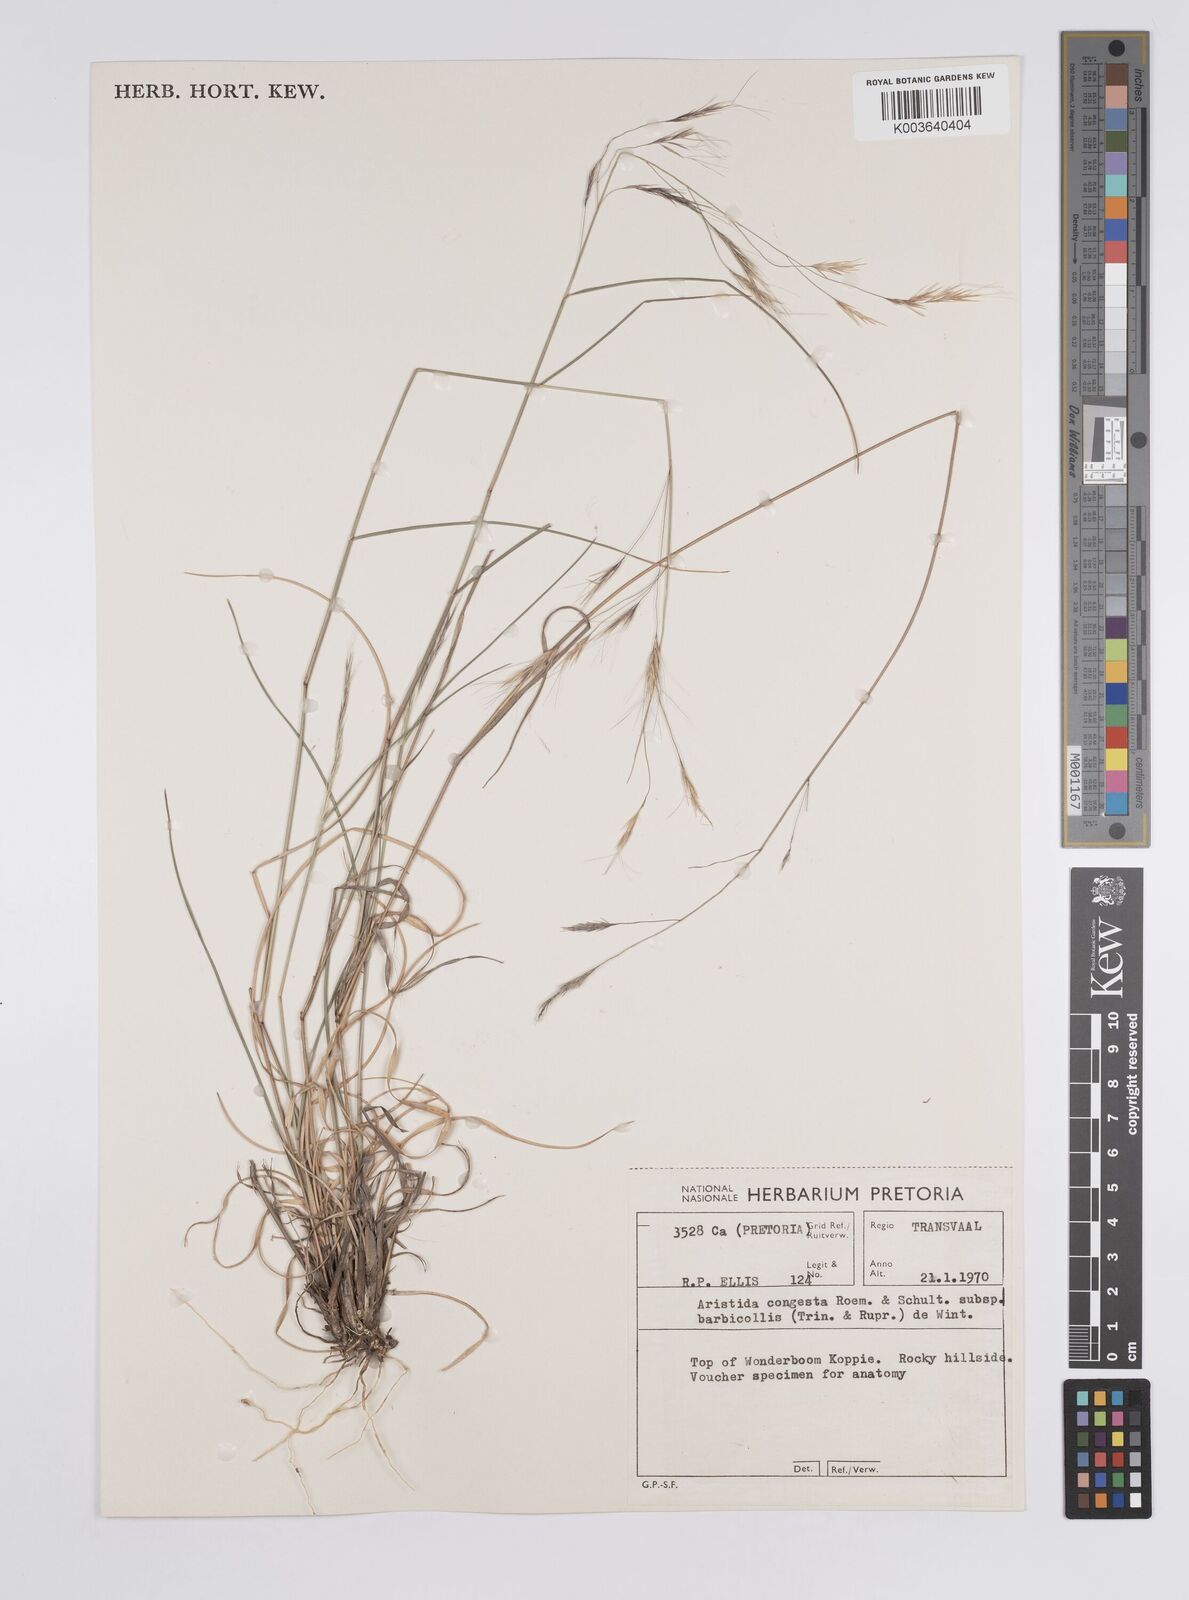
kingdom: Plantae
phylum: Tracheophyta
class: Liliopsida
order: Poales
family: Poaceae
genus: Aristida
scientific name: Aristida barbicollis
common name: Spreading prickle grass
